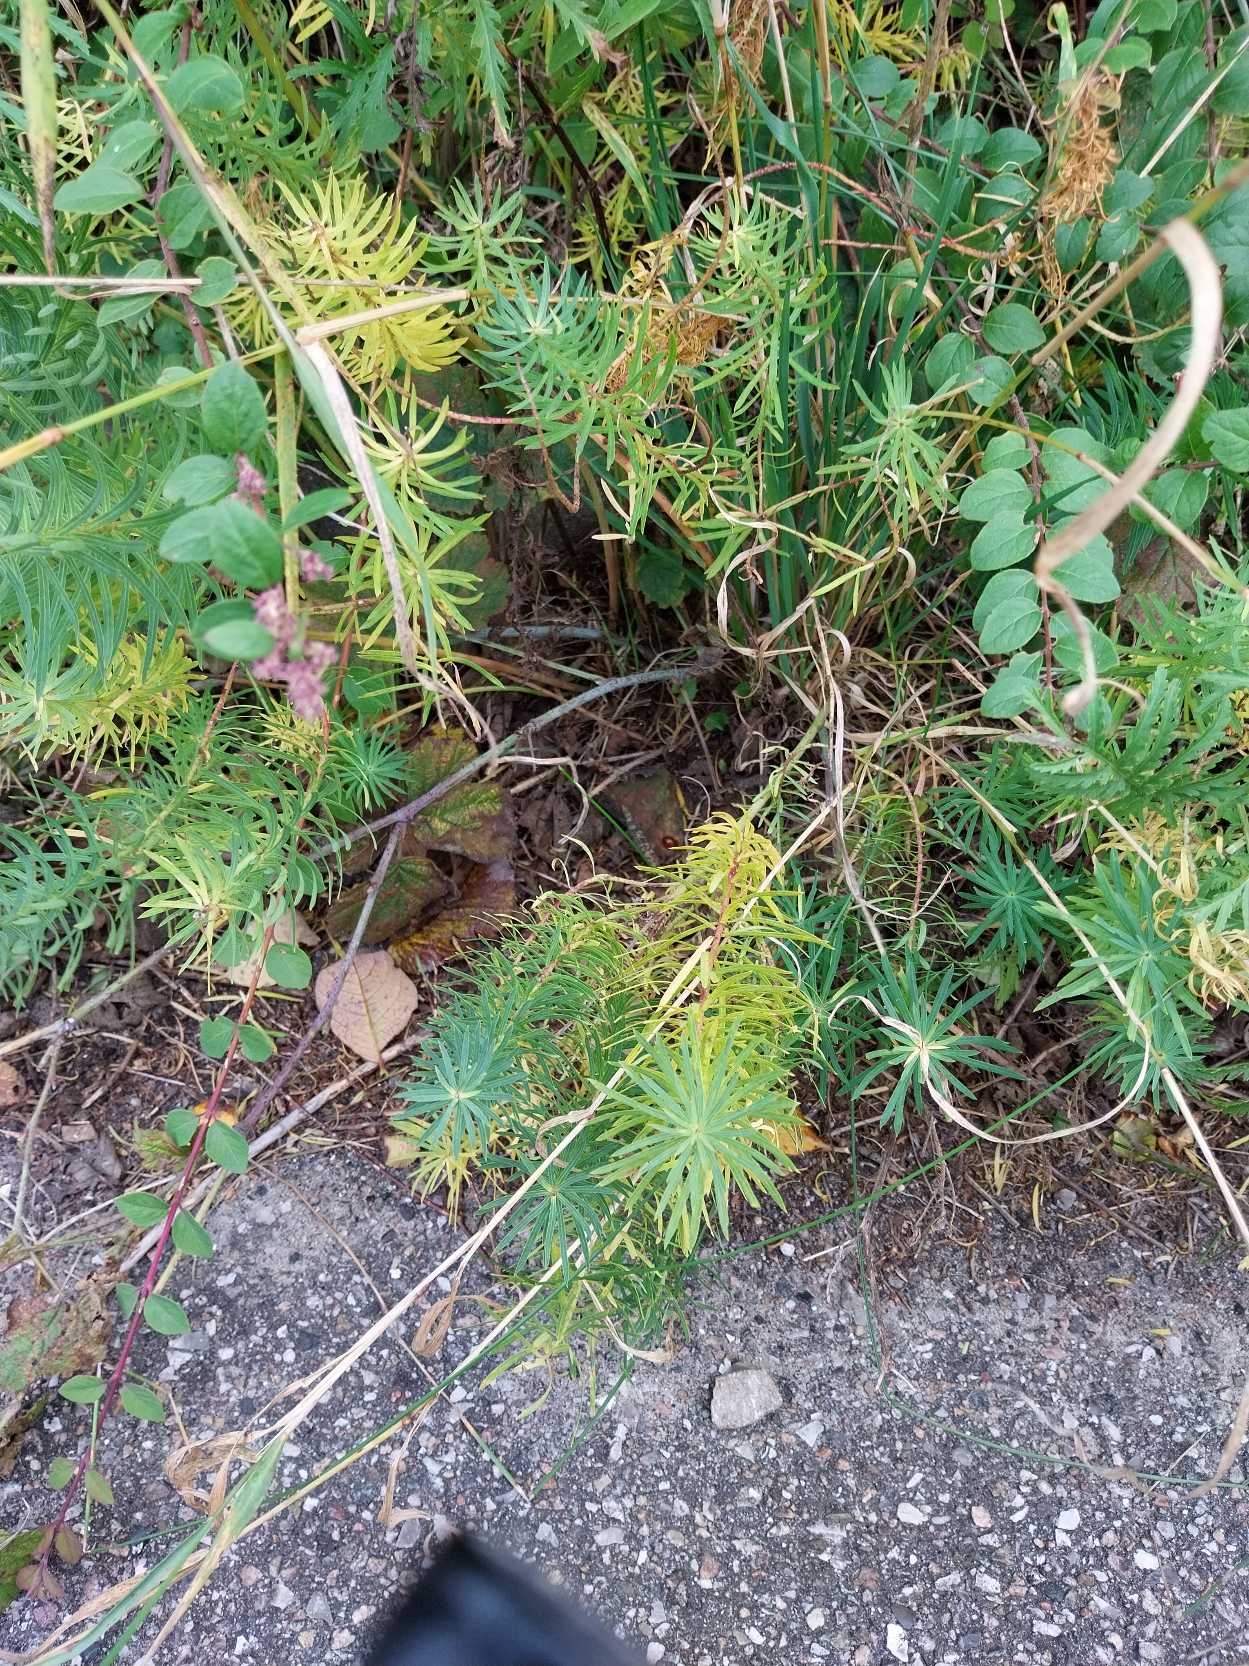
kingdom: Plantae
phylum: Tracheophyta
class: Magnoliopsida
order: Malpighiales
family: Euphorbiaceae
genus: Euphorbia
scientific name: Euphorbia cyparissias
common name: Cypres-vortemælk
